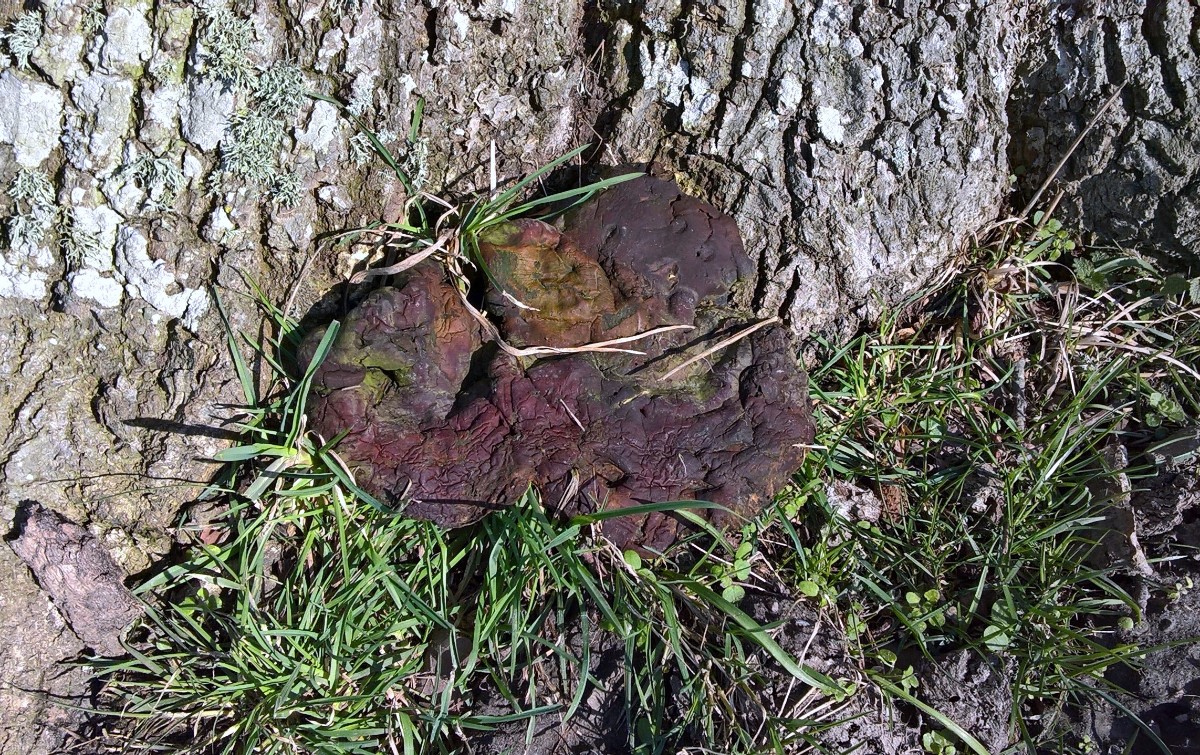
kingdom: Fungi
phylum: Basidiomycota
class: Agaricomycetes
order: Polyporales
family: Polyporaceae
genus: Ganoderma
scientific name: Ganoderma resinaceum
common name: gyldenbrun lakporesvamp
